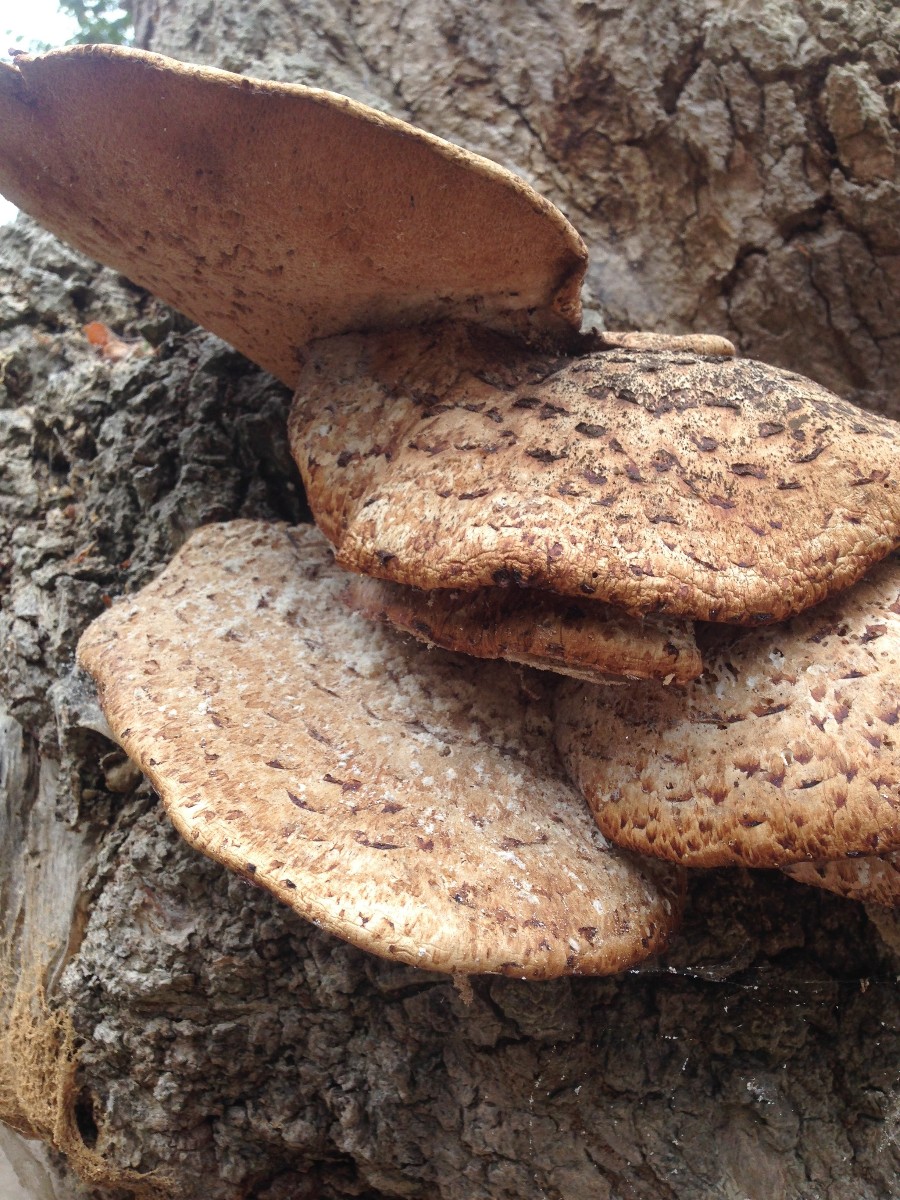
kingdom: Fungi
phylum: Basidiomycota
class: Agaricomycetes
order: Polyporales
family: Polyporaceae
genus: Cerioporus
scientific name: Cerioporus squamosus
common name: skællet stilkporesvamp
